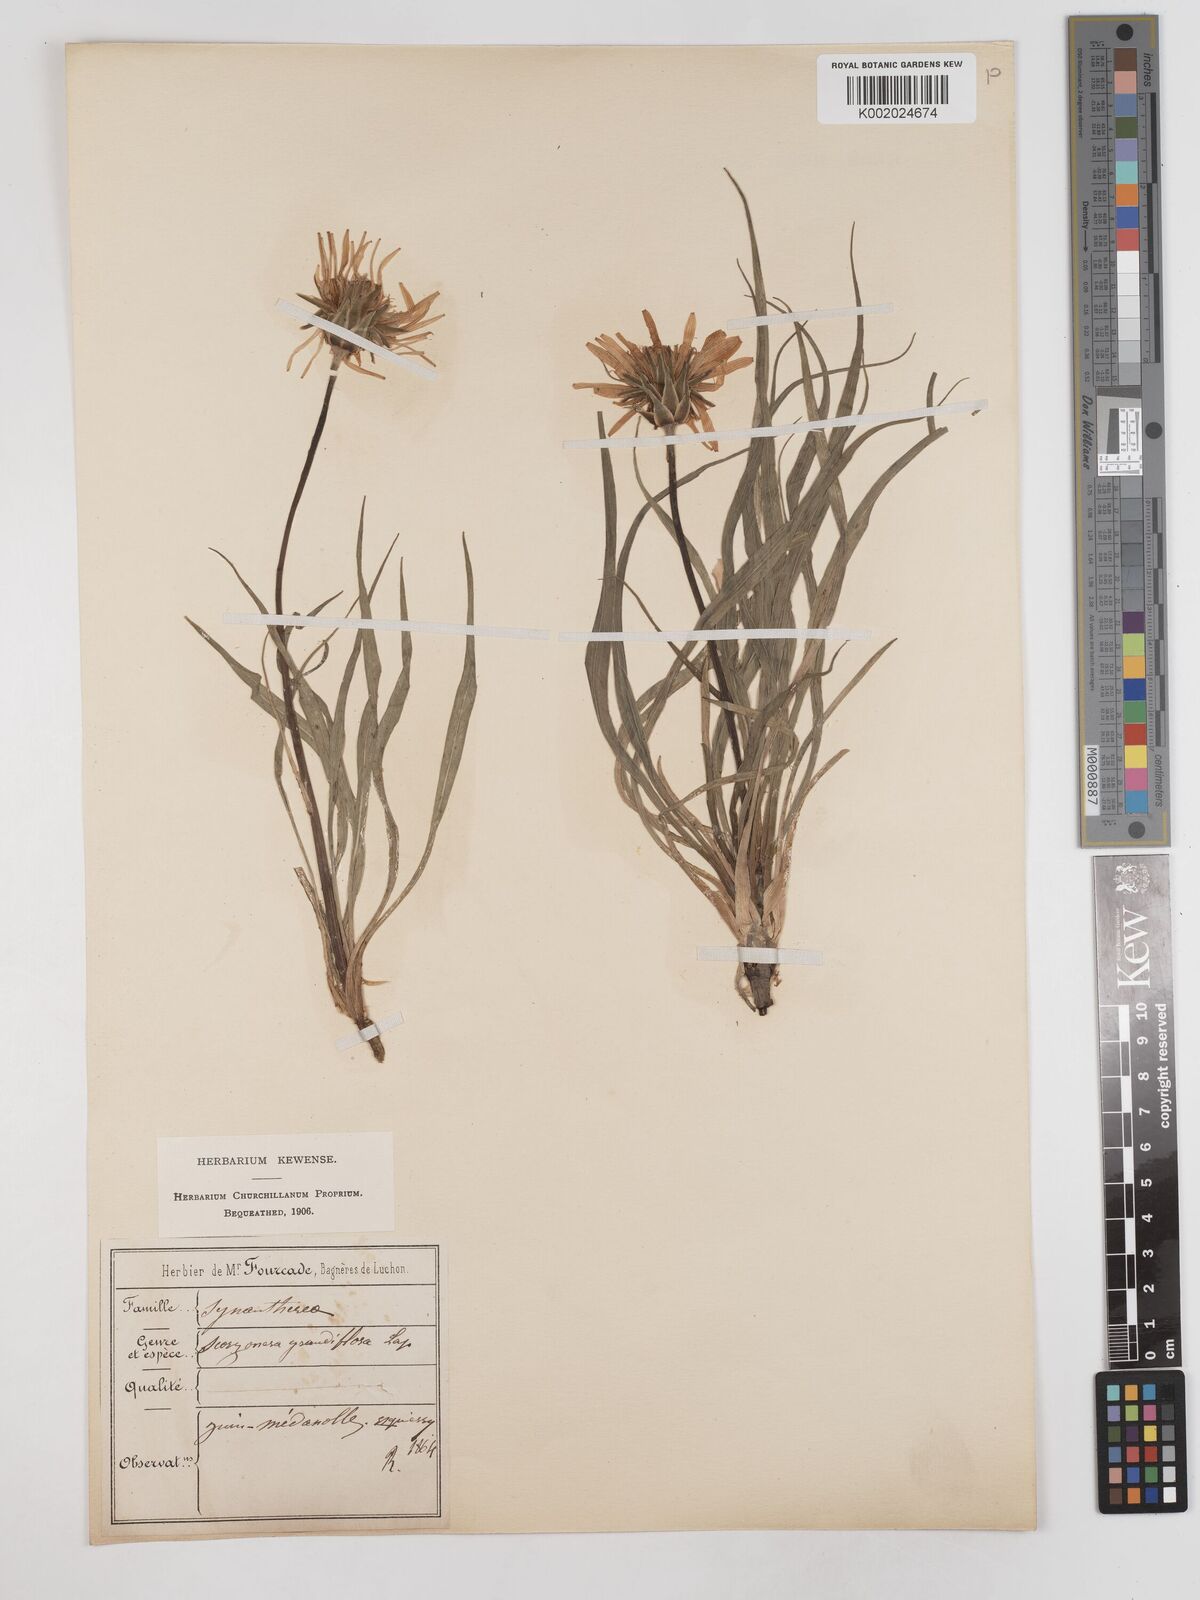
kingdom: Plantae
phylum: Tracheophyta
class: Magnoliopsida
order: Asterales
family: Asteraceae
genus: Scorzonera
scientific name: Scorzonera calcitrapifolia
